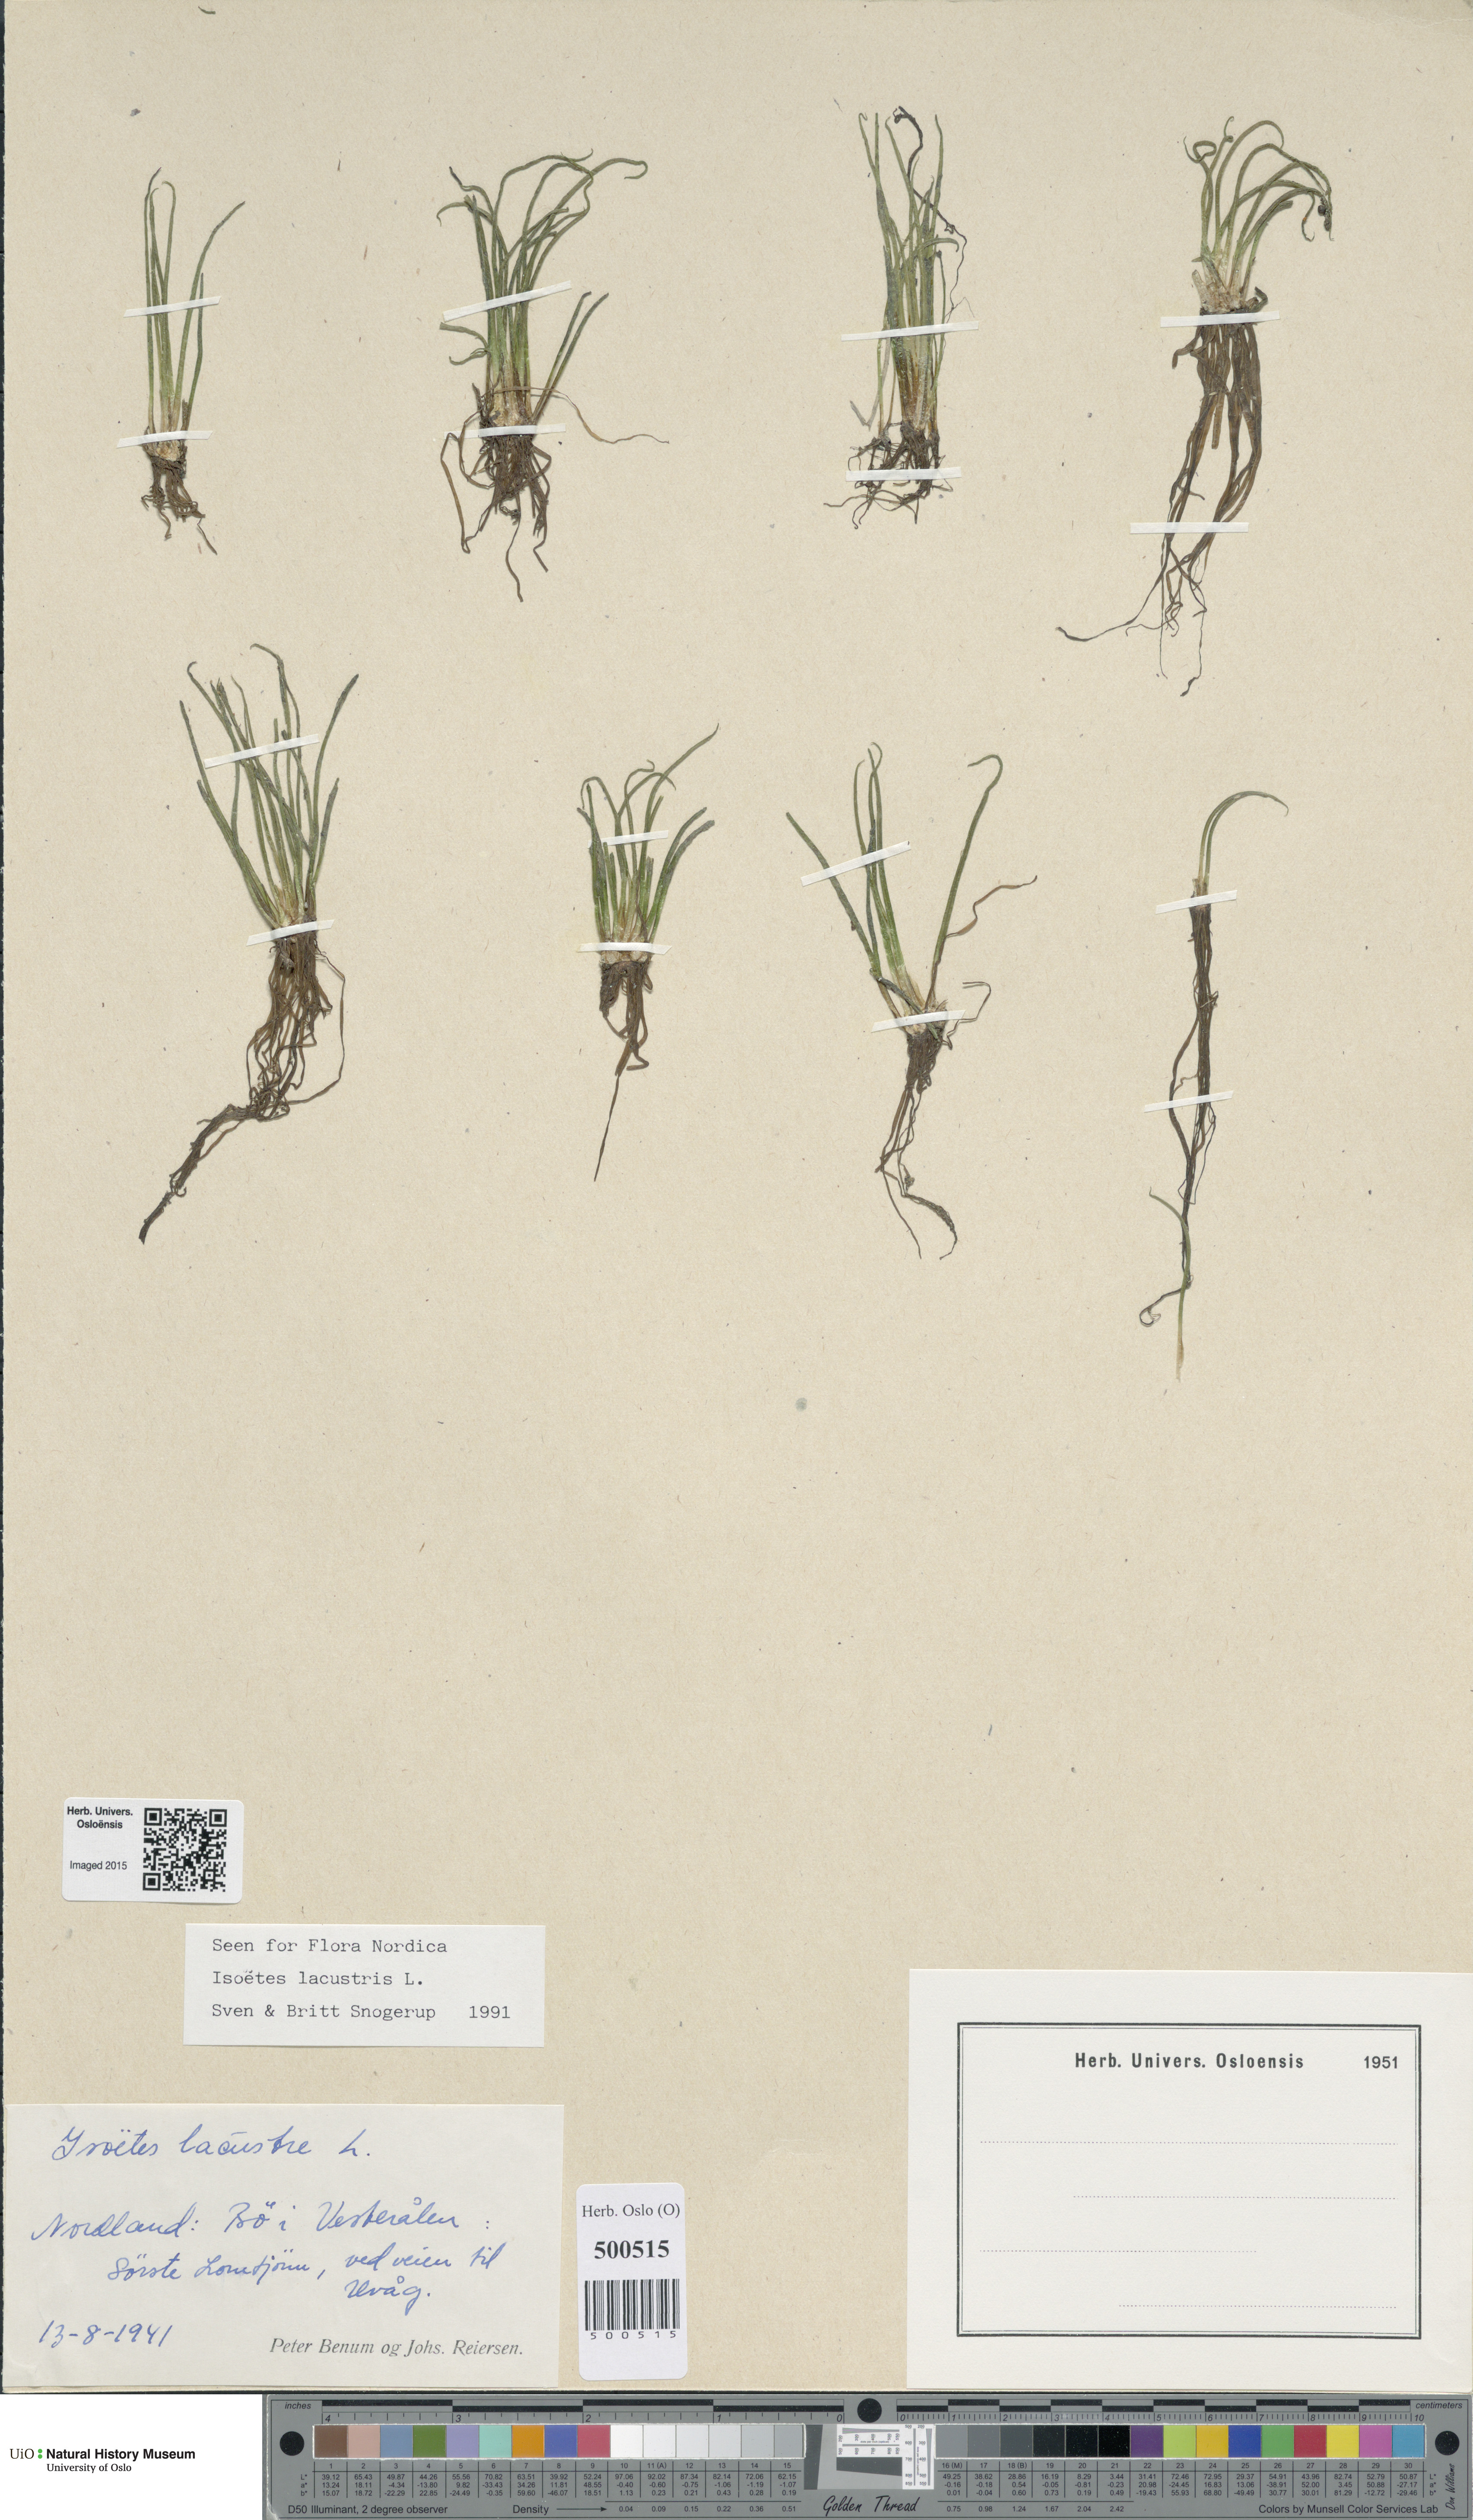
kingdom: Plantae
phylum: Tracheophyta
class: Lycopodiopsida
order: Isoetales
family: Isoetaceae
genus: Isoetes
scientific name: Isoetes lacustris
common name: Common quillwort
